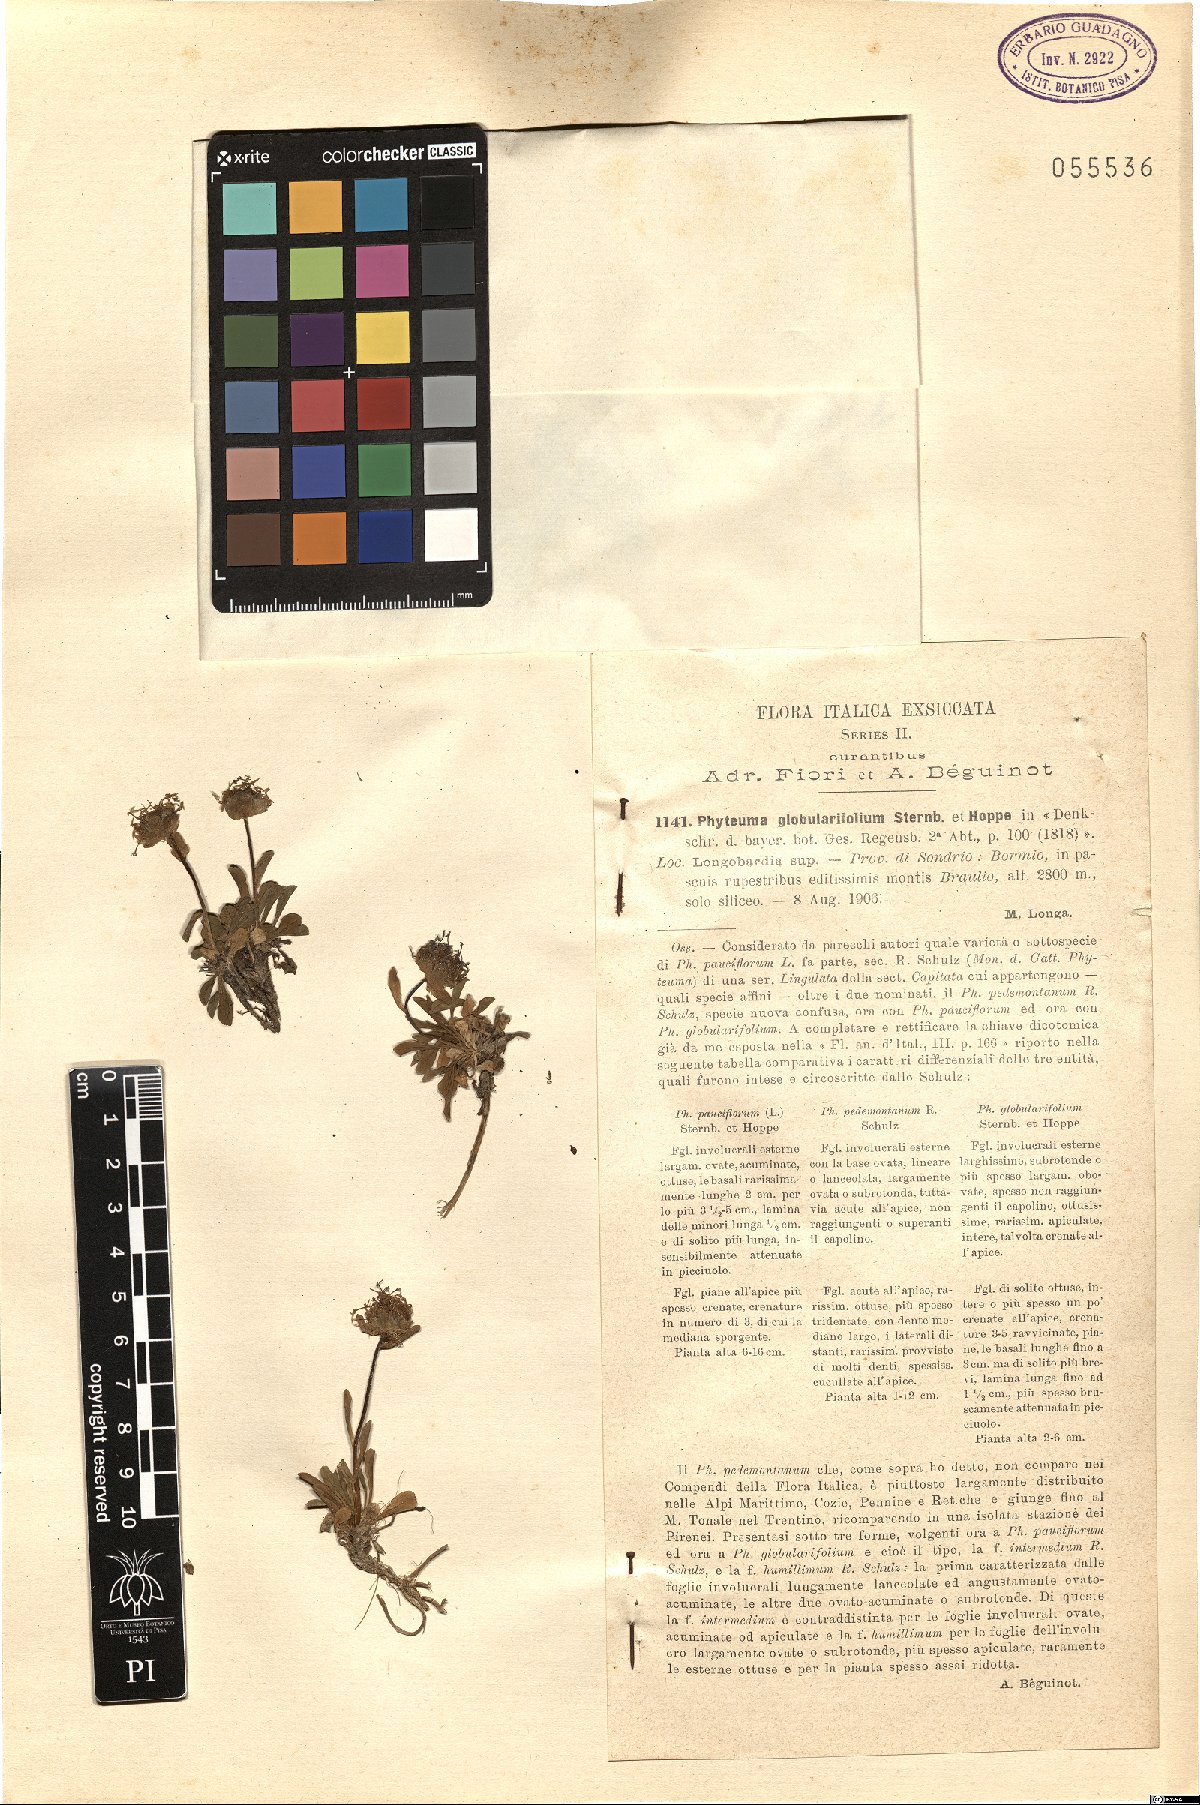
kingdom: Plantae
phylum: Tracheophyta
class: Magnoliopsida
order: Asterales
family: Campanulaceae
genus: Phyteuma
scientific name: Phyteuma globulariifolium
